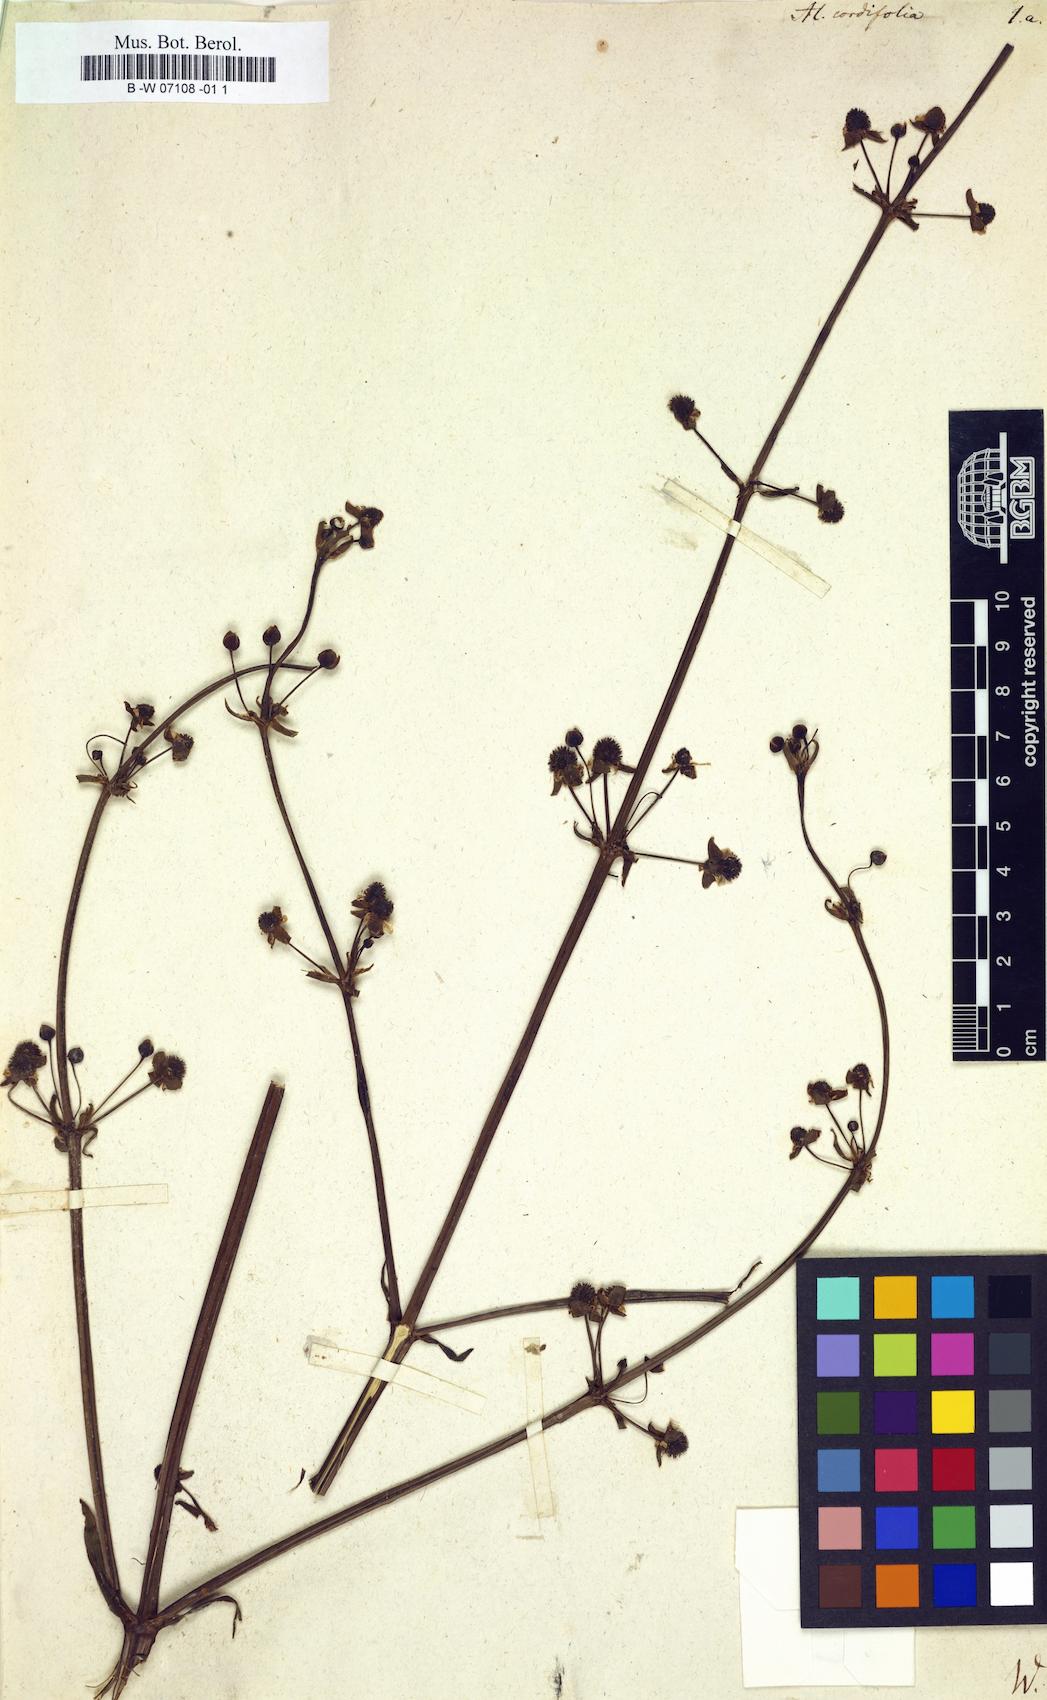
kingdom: Plantae
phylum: Tracheophyta
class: Liliopsida
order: Alismatales
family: Alismataceae
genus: Alisma
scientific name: Alisma cordifolium
